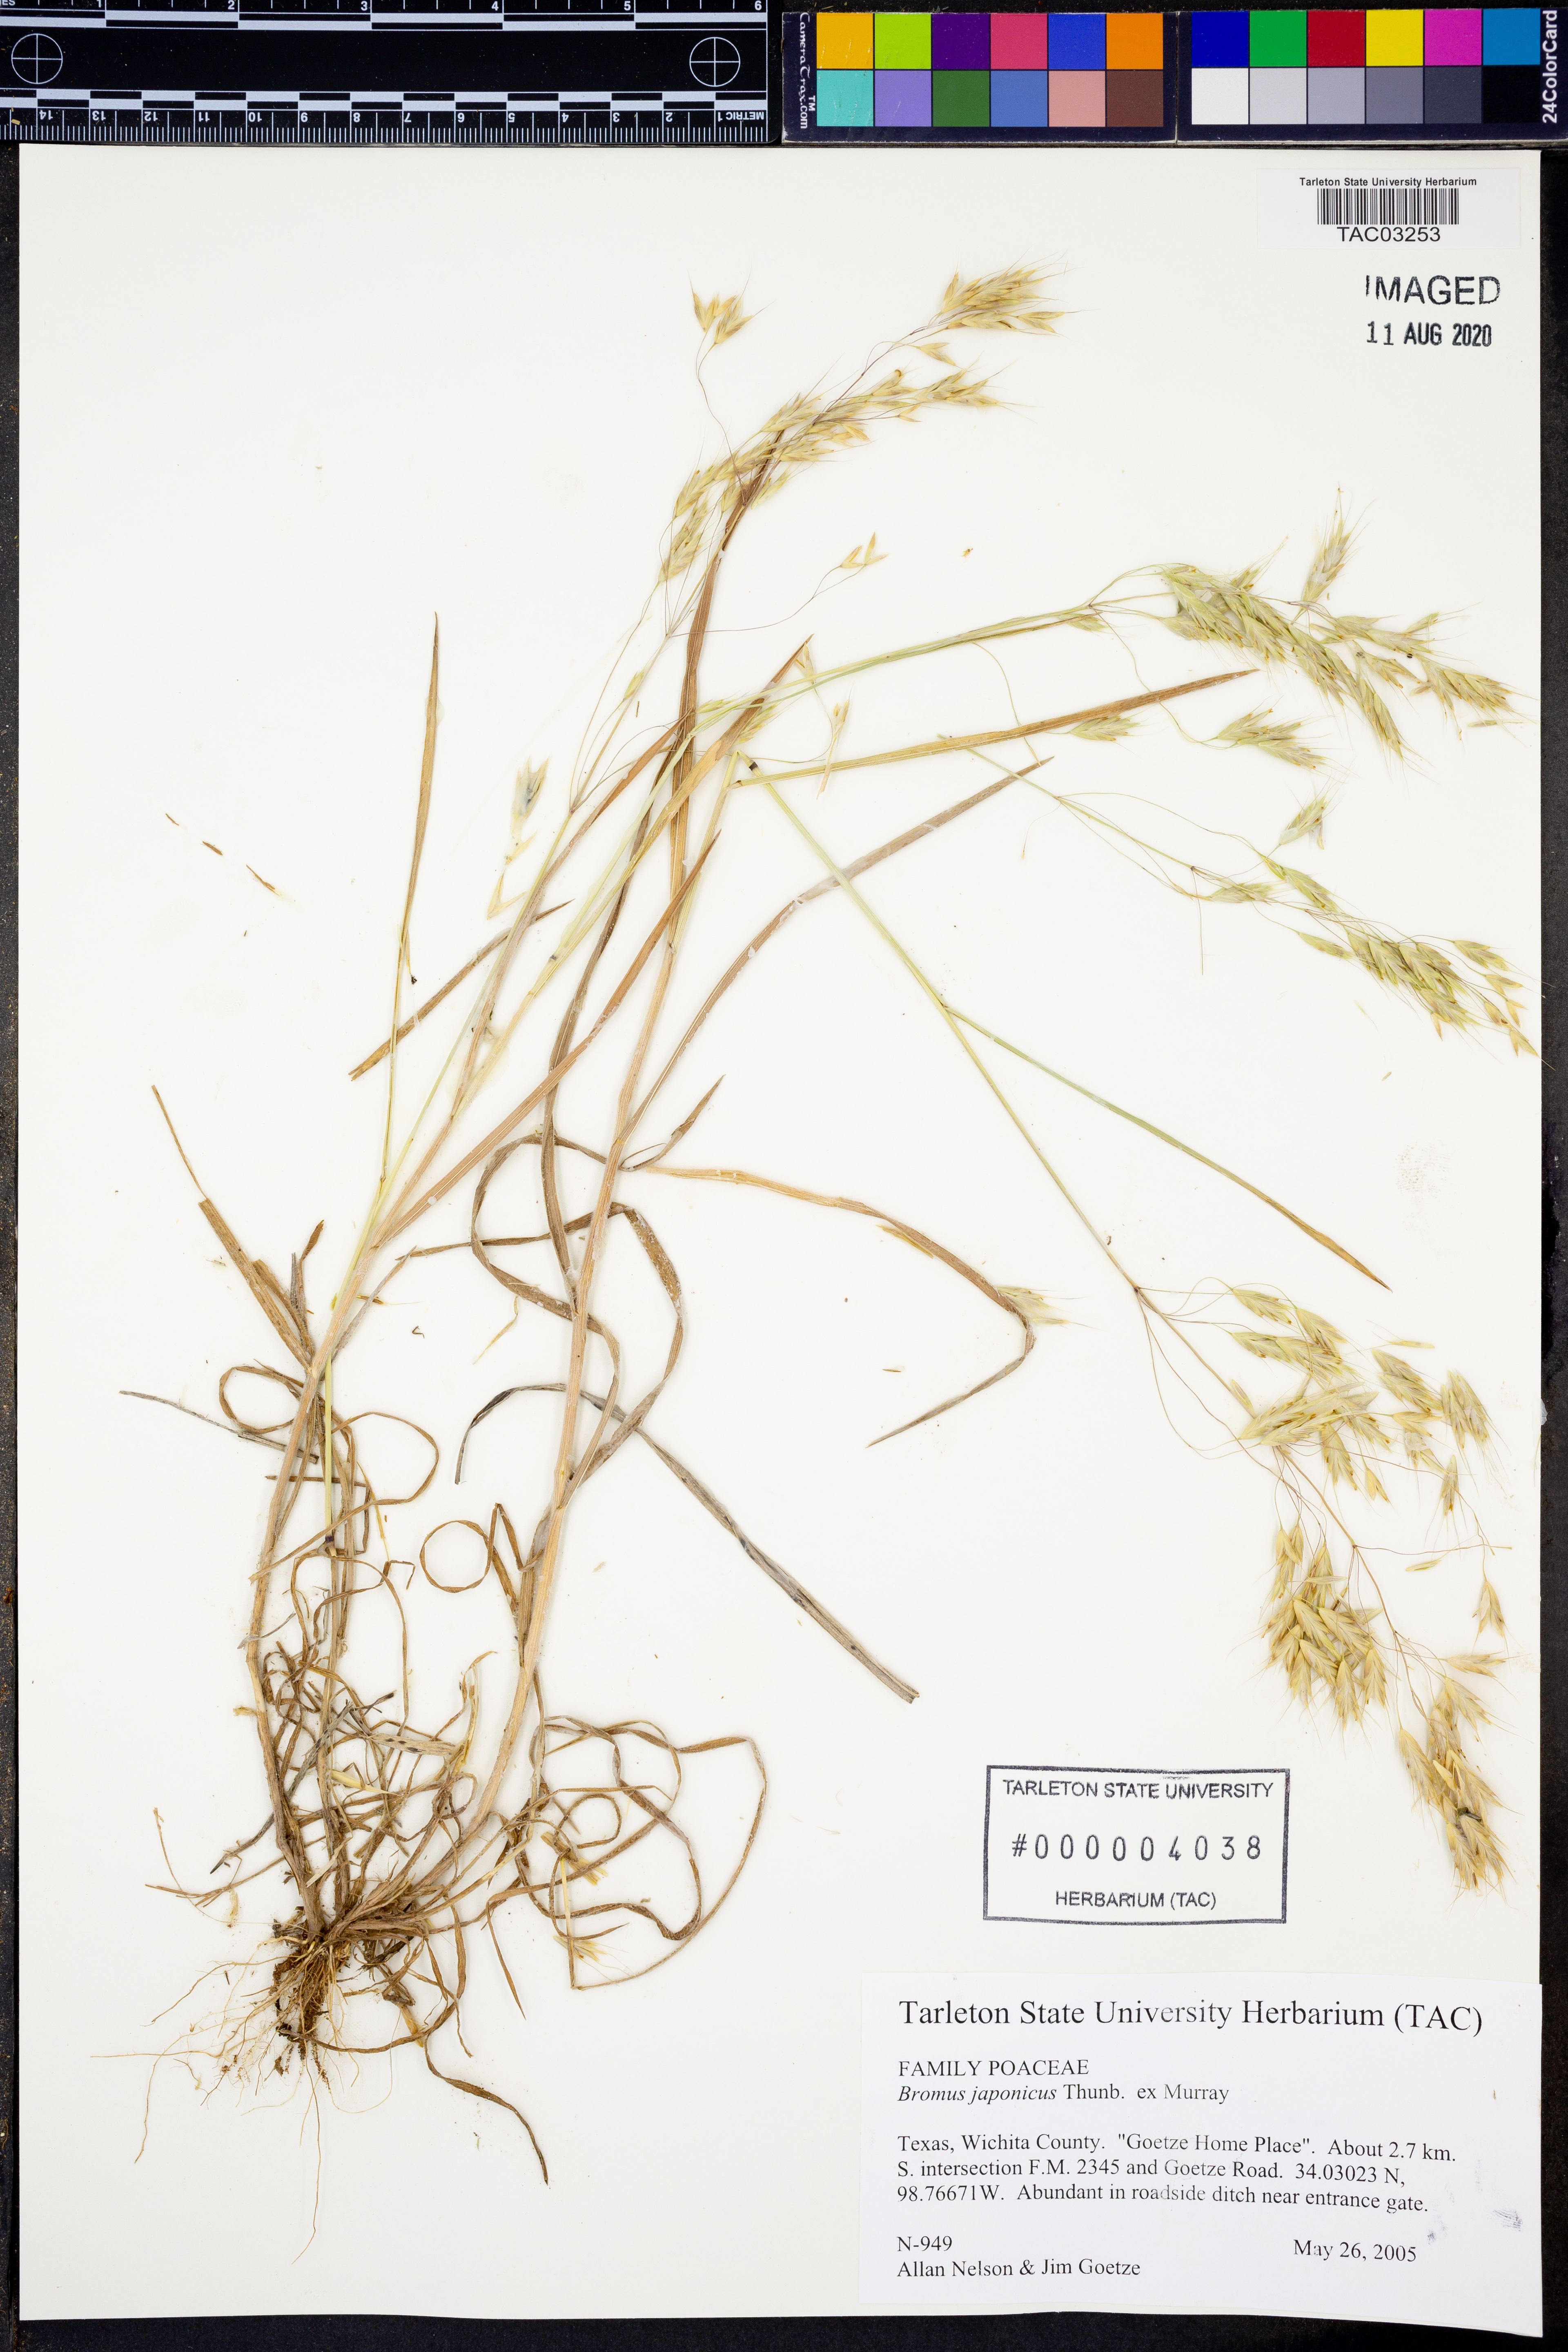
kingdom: Plantae
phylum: Tracheophyta
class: Liliopsida
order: Poales
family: Poaceae
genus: Bromus
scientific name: Bromus japonicus
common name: Japanese brome
